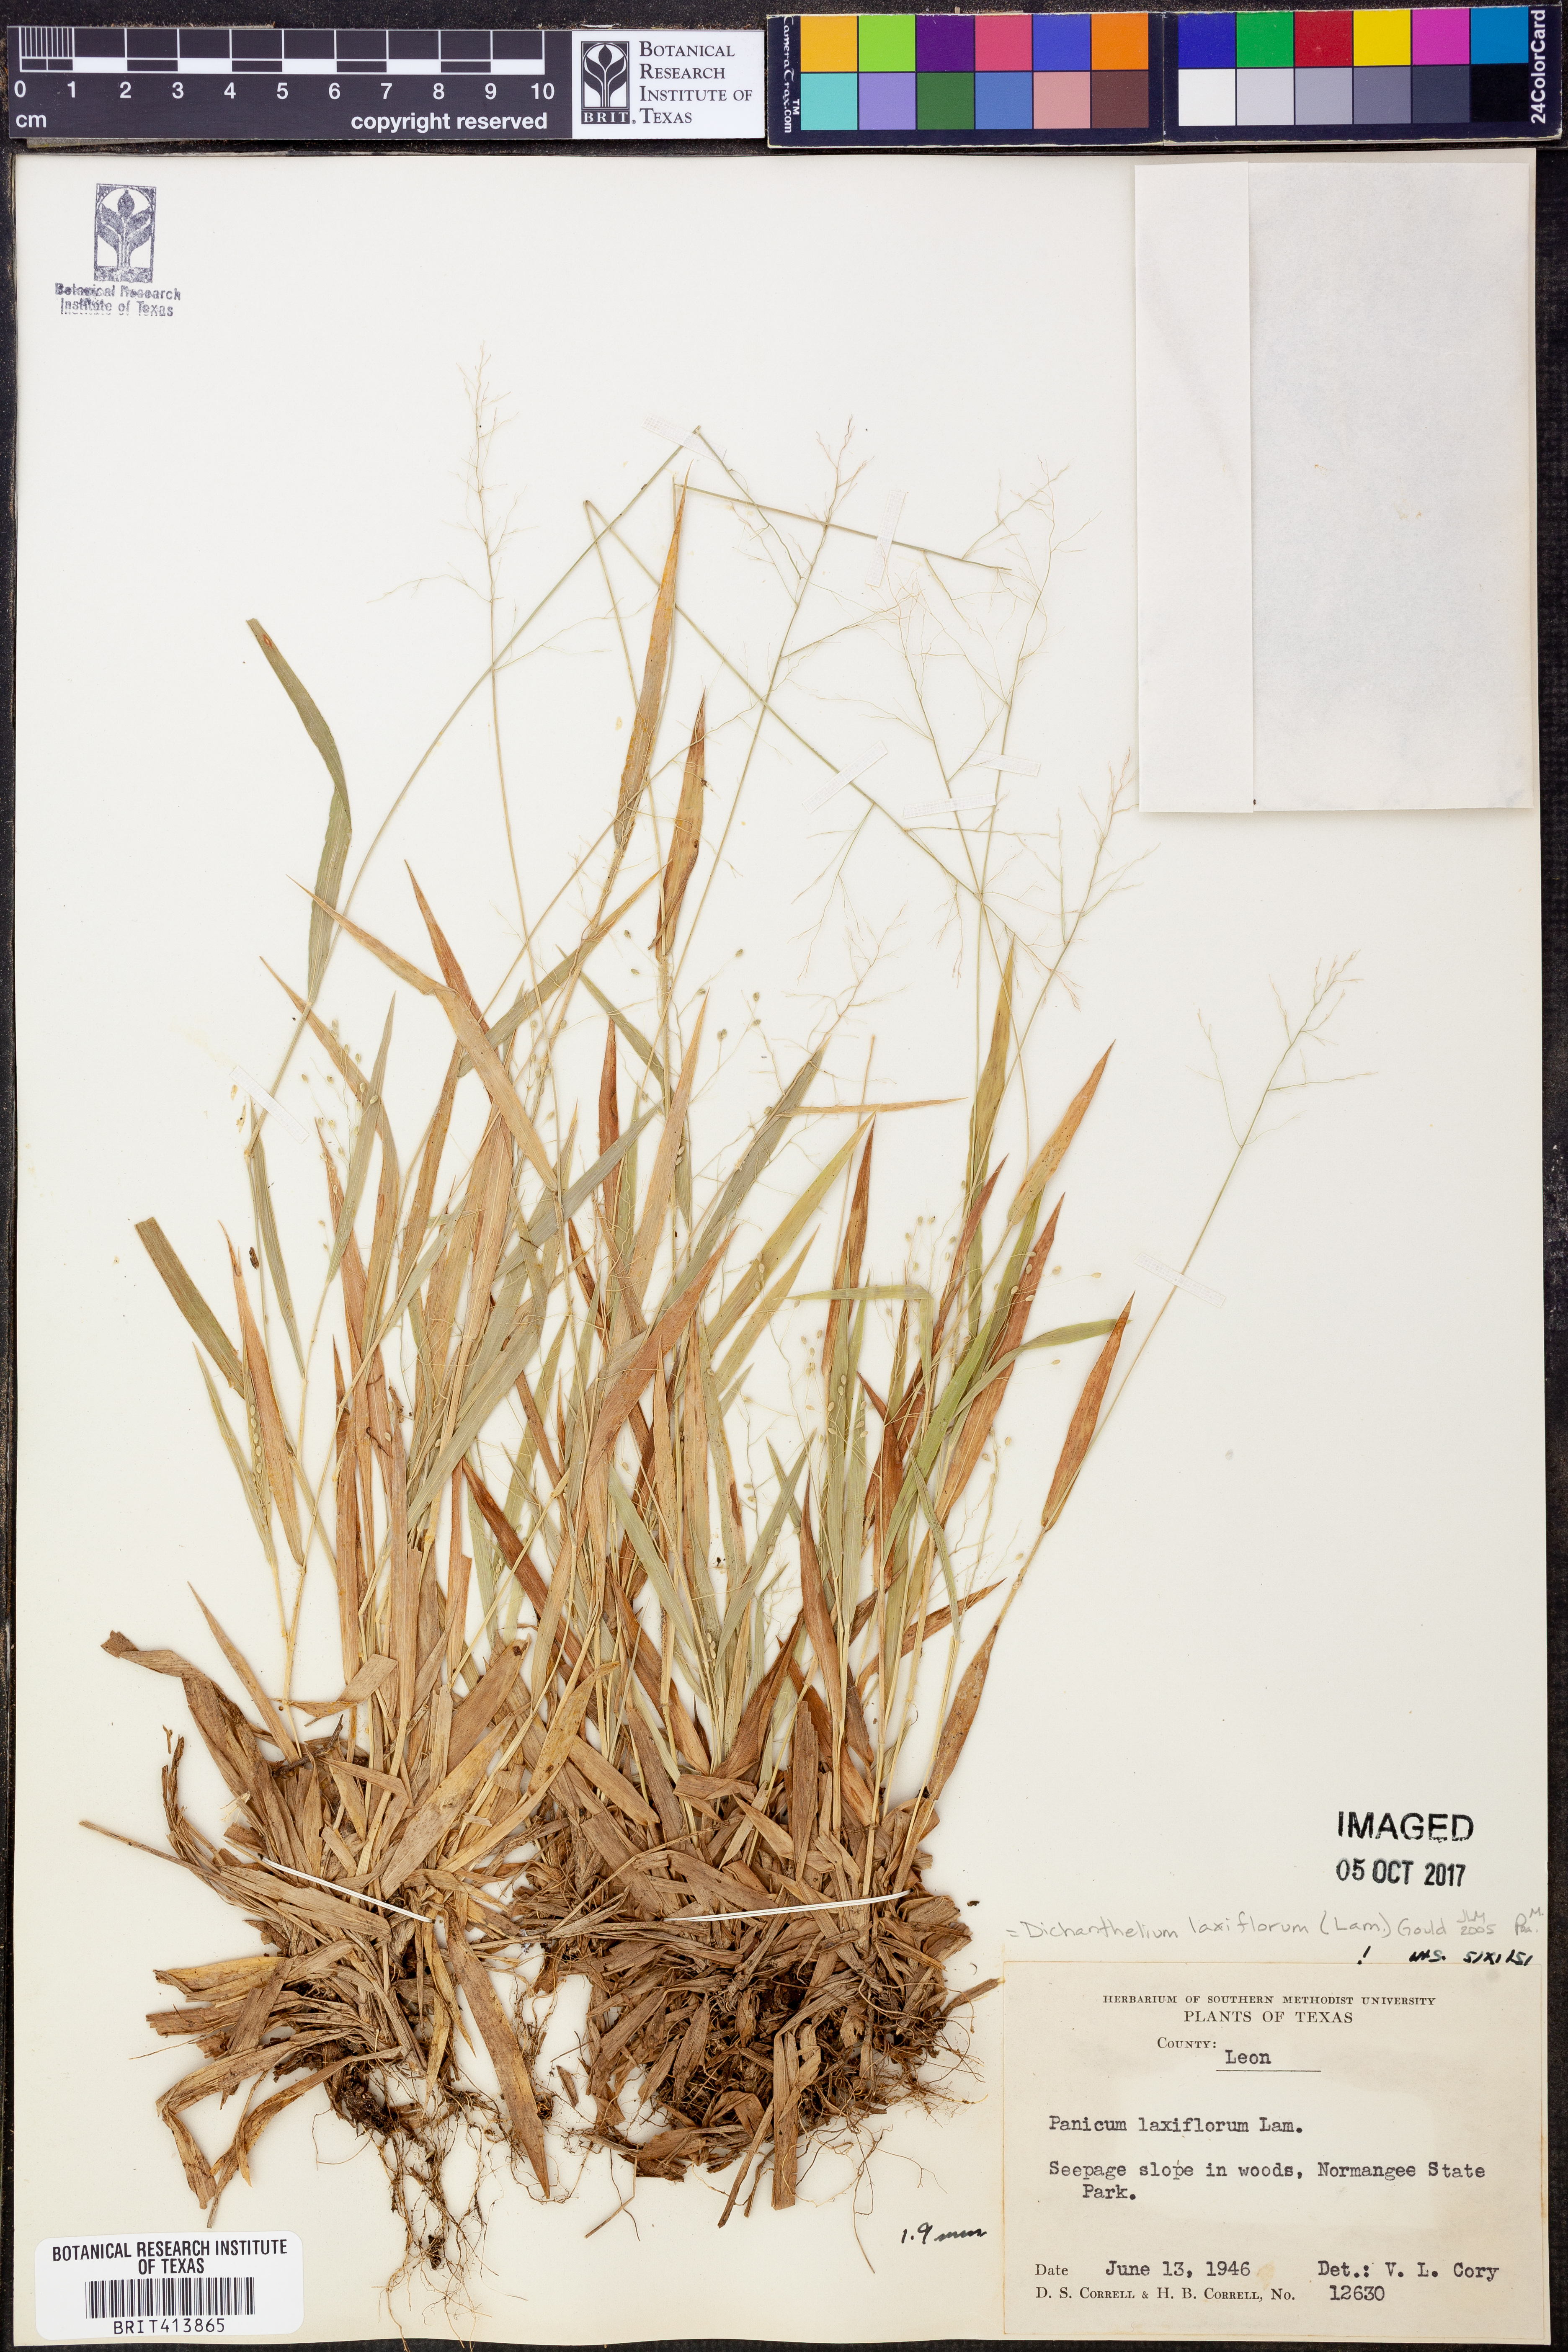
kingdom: Plantae
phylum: Tracheophyta
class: Liliopsida
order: Poales
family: Poaceae
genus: Dichanthelium
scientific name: Dichanthelium laxiflorum
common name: Soft-tuft panic grass
